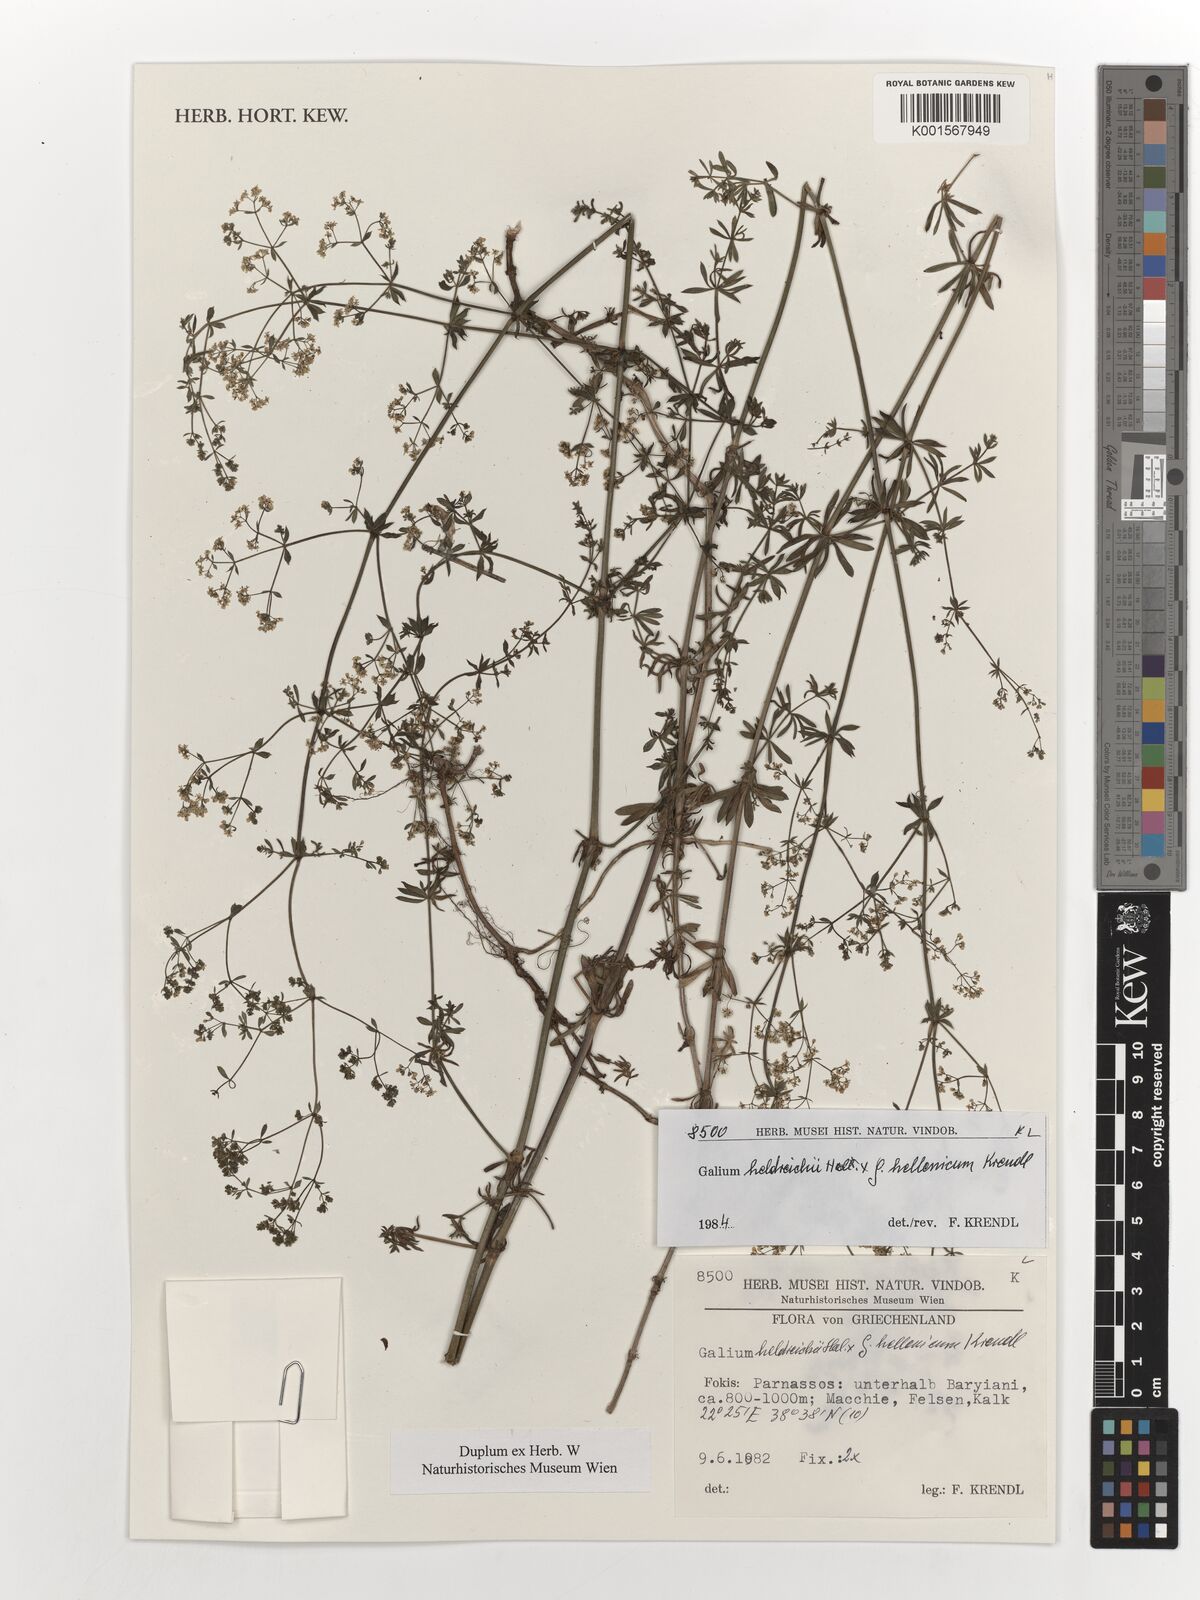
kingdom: Plantae
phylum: Tracheophyta
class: Magnoliopsida
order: Gentianales
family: Rubiaceae
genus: Galium
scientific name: Galium heldreichii
